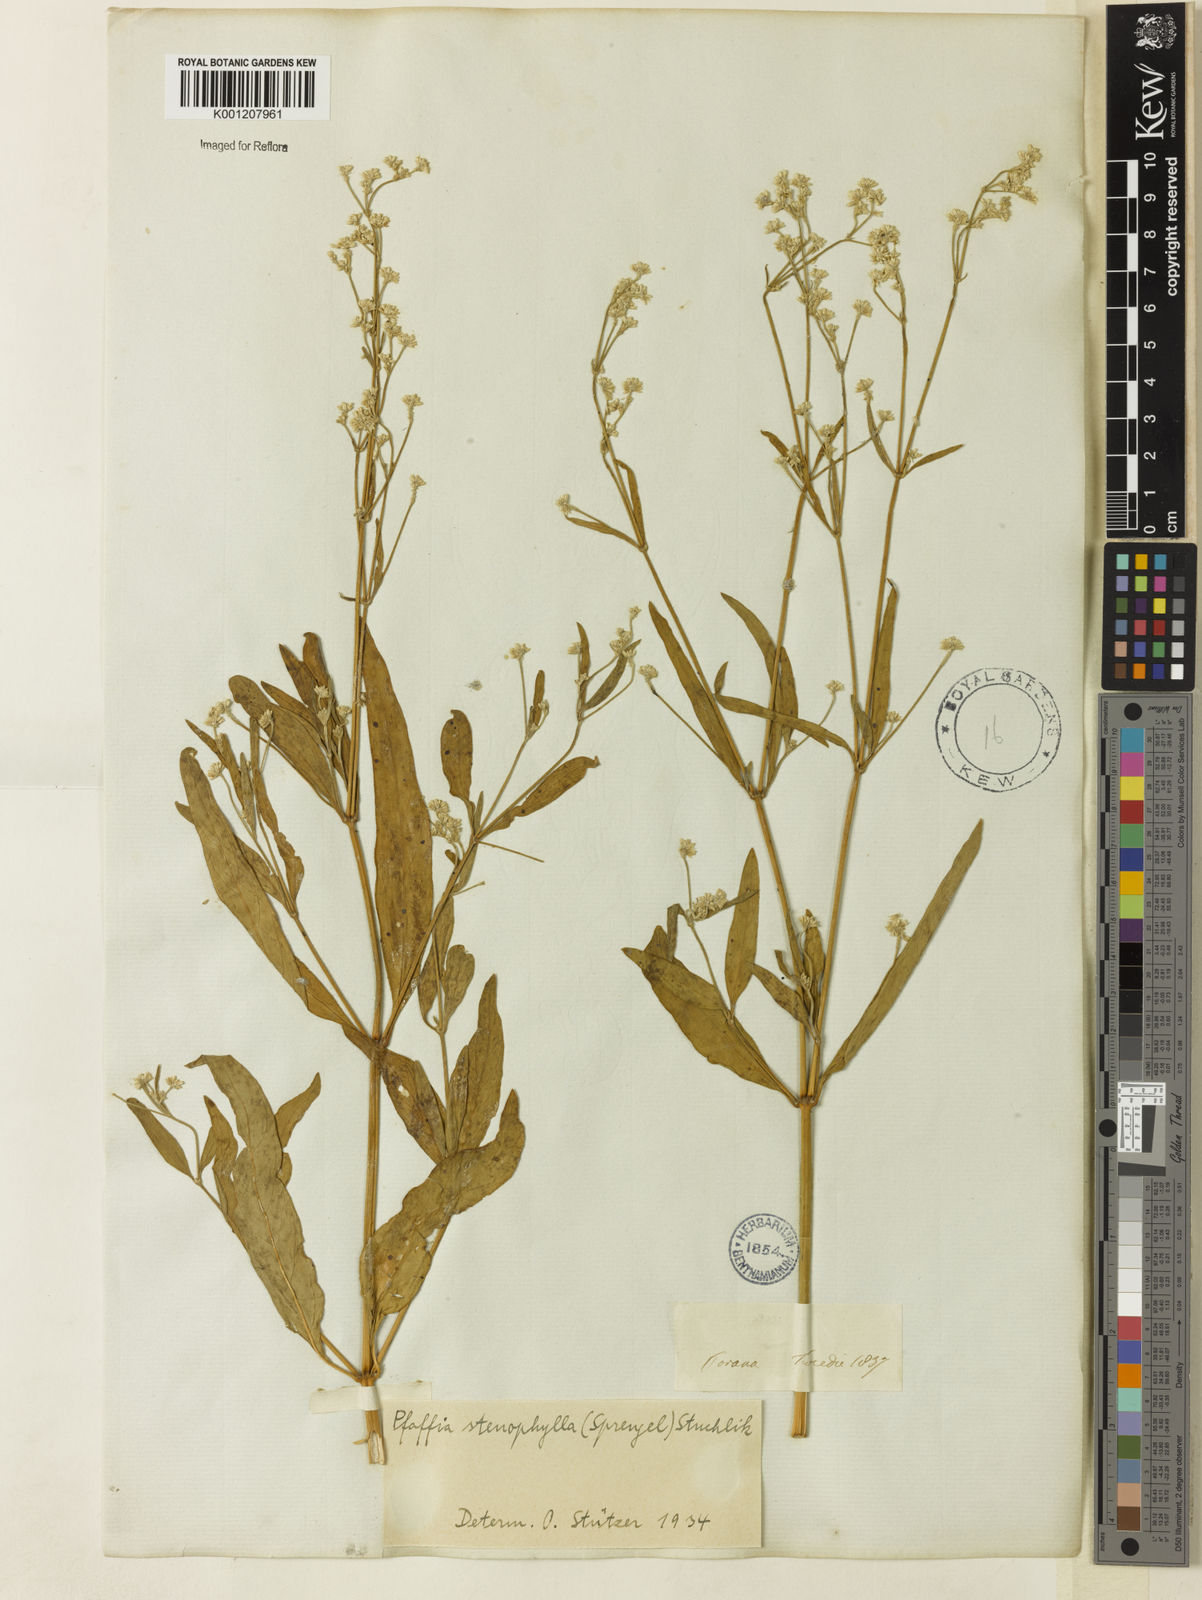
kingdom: Plantae
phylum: Tracheophyta
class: Magnoliopsida
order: Caryophyllales
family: Amaranthaceae
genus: Pfaffia
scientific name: Pfaffia
